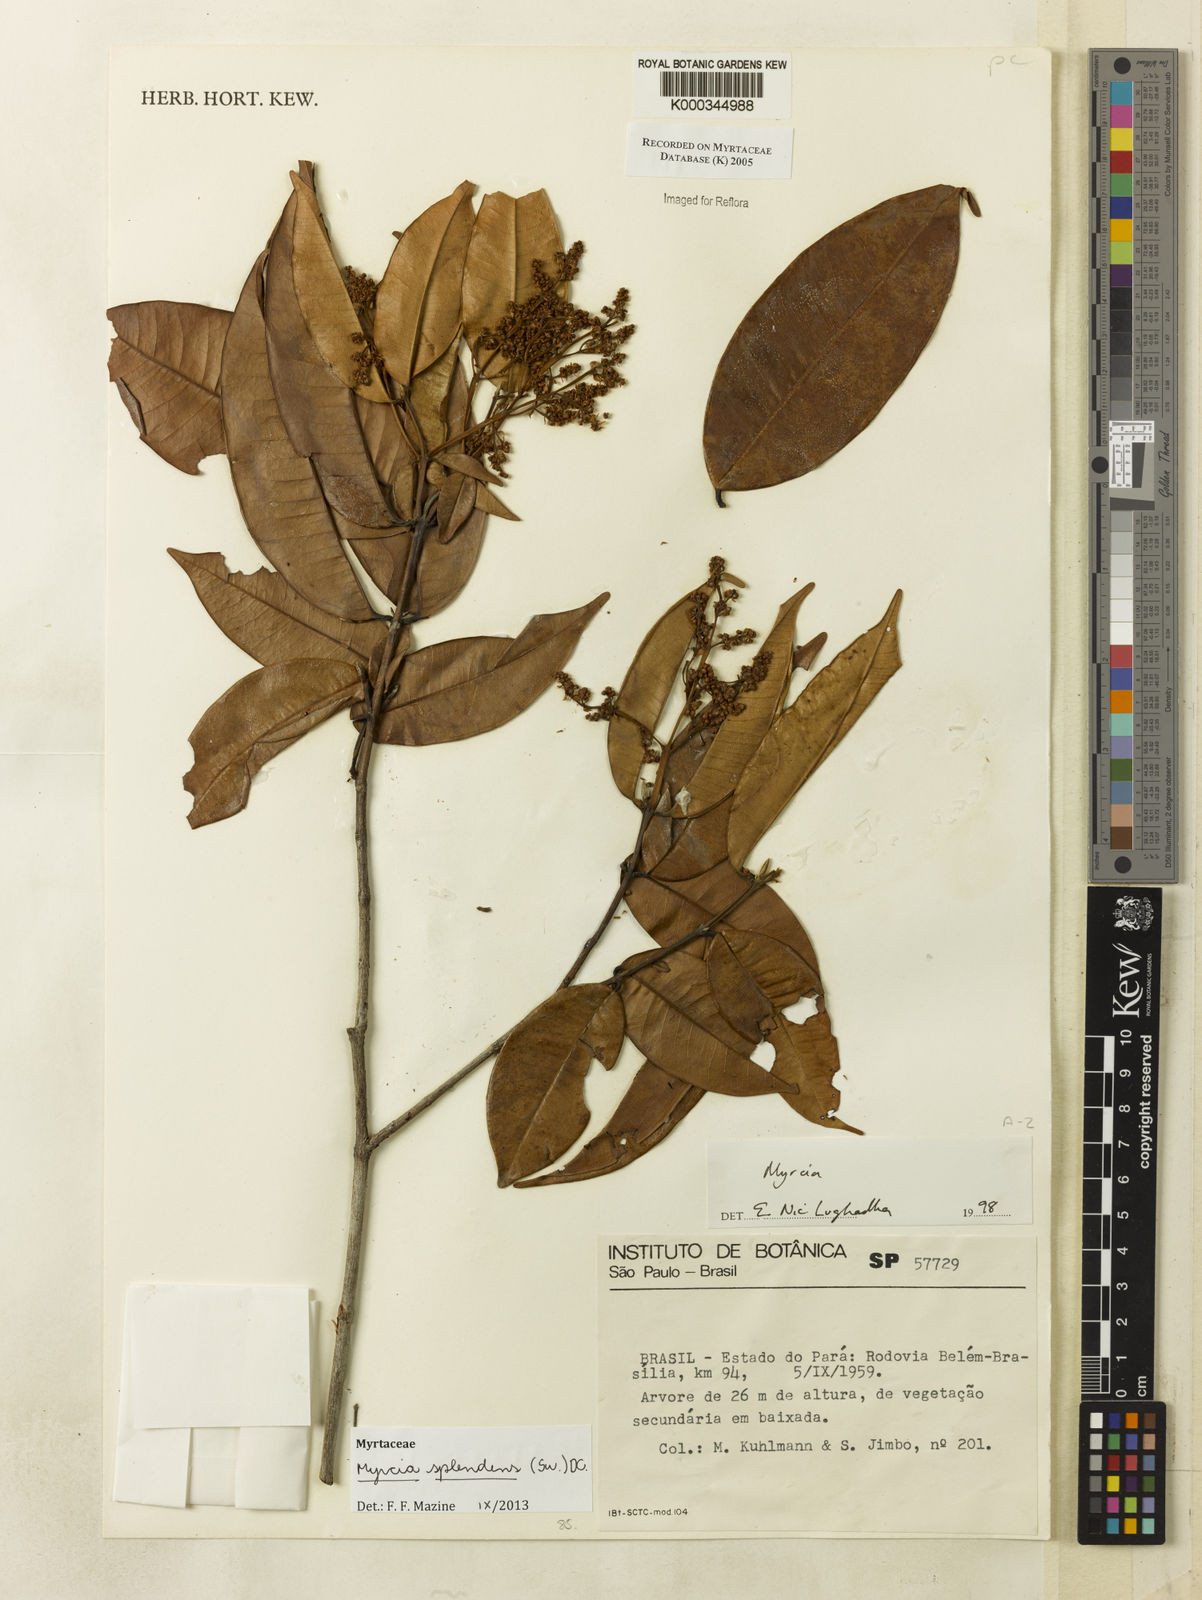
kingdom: Plantae
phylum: Tracheophyta
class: Magnoliopsida
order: Myrtales
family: Myrtaceae
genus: Myrcia
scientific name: Myrcia
